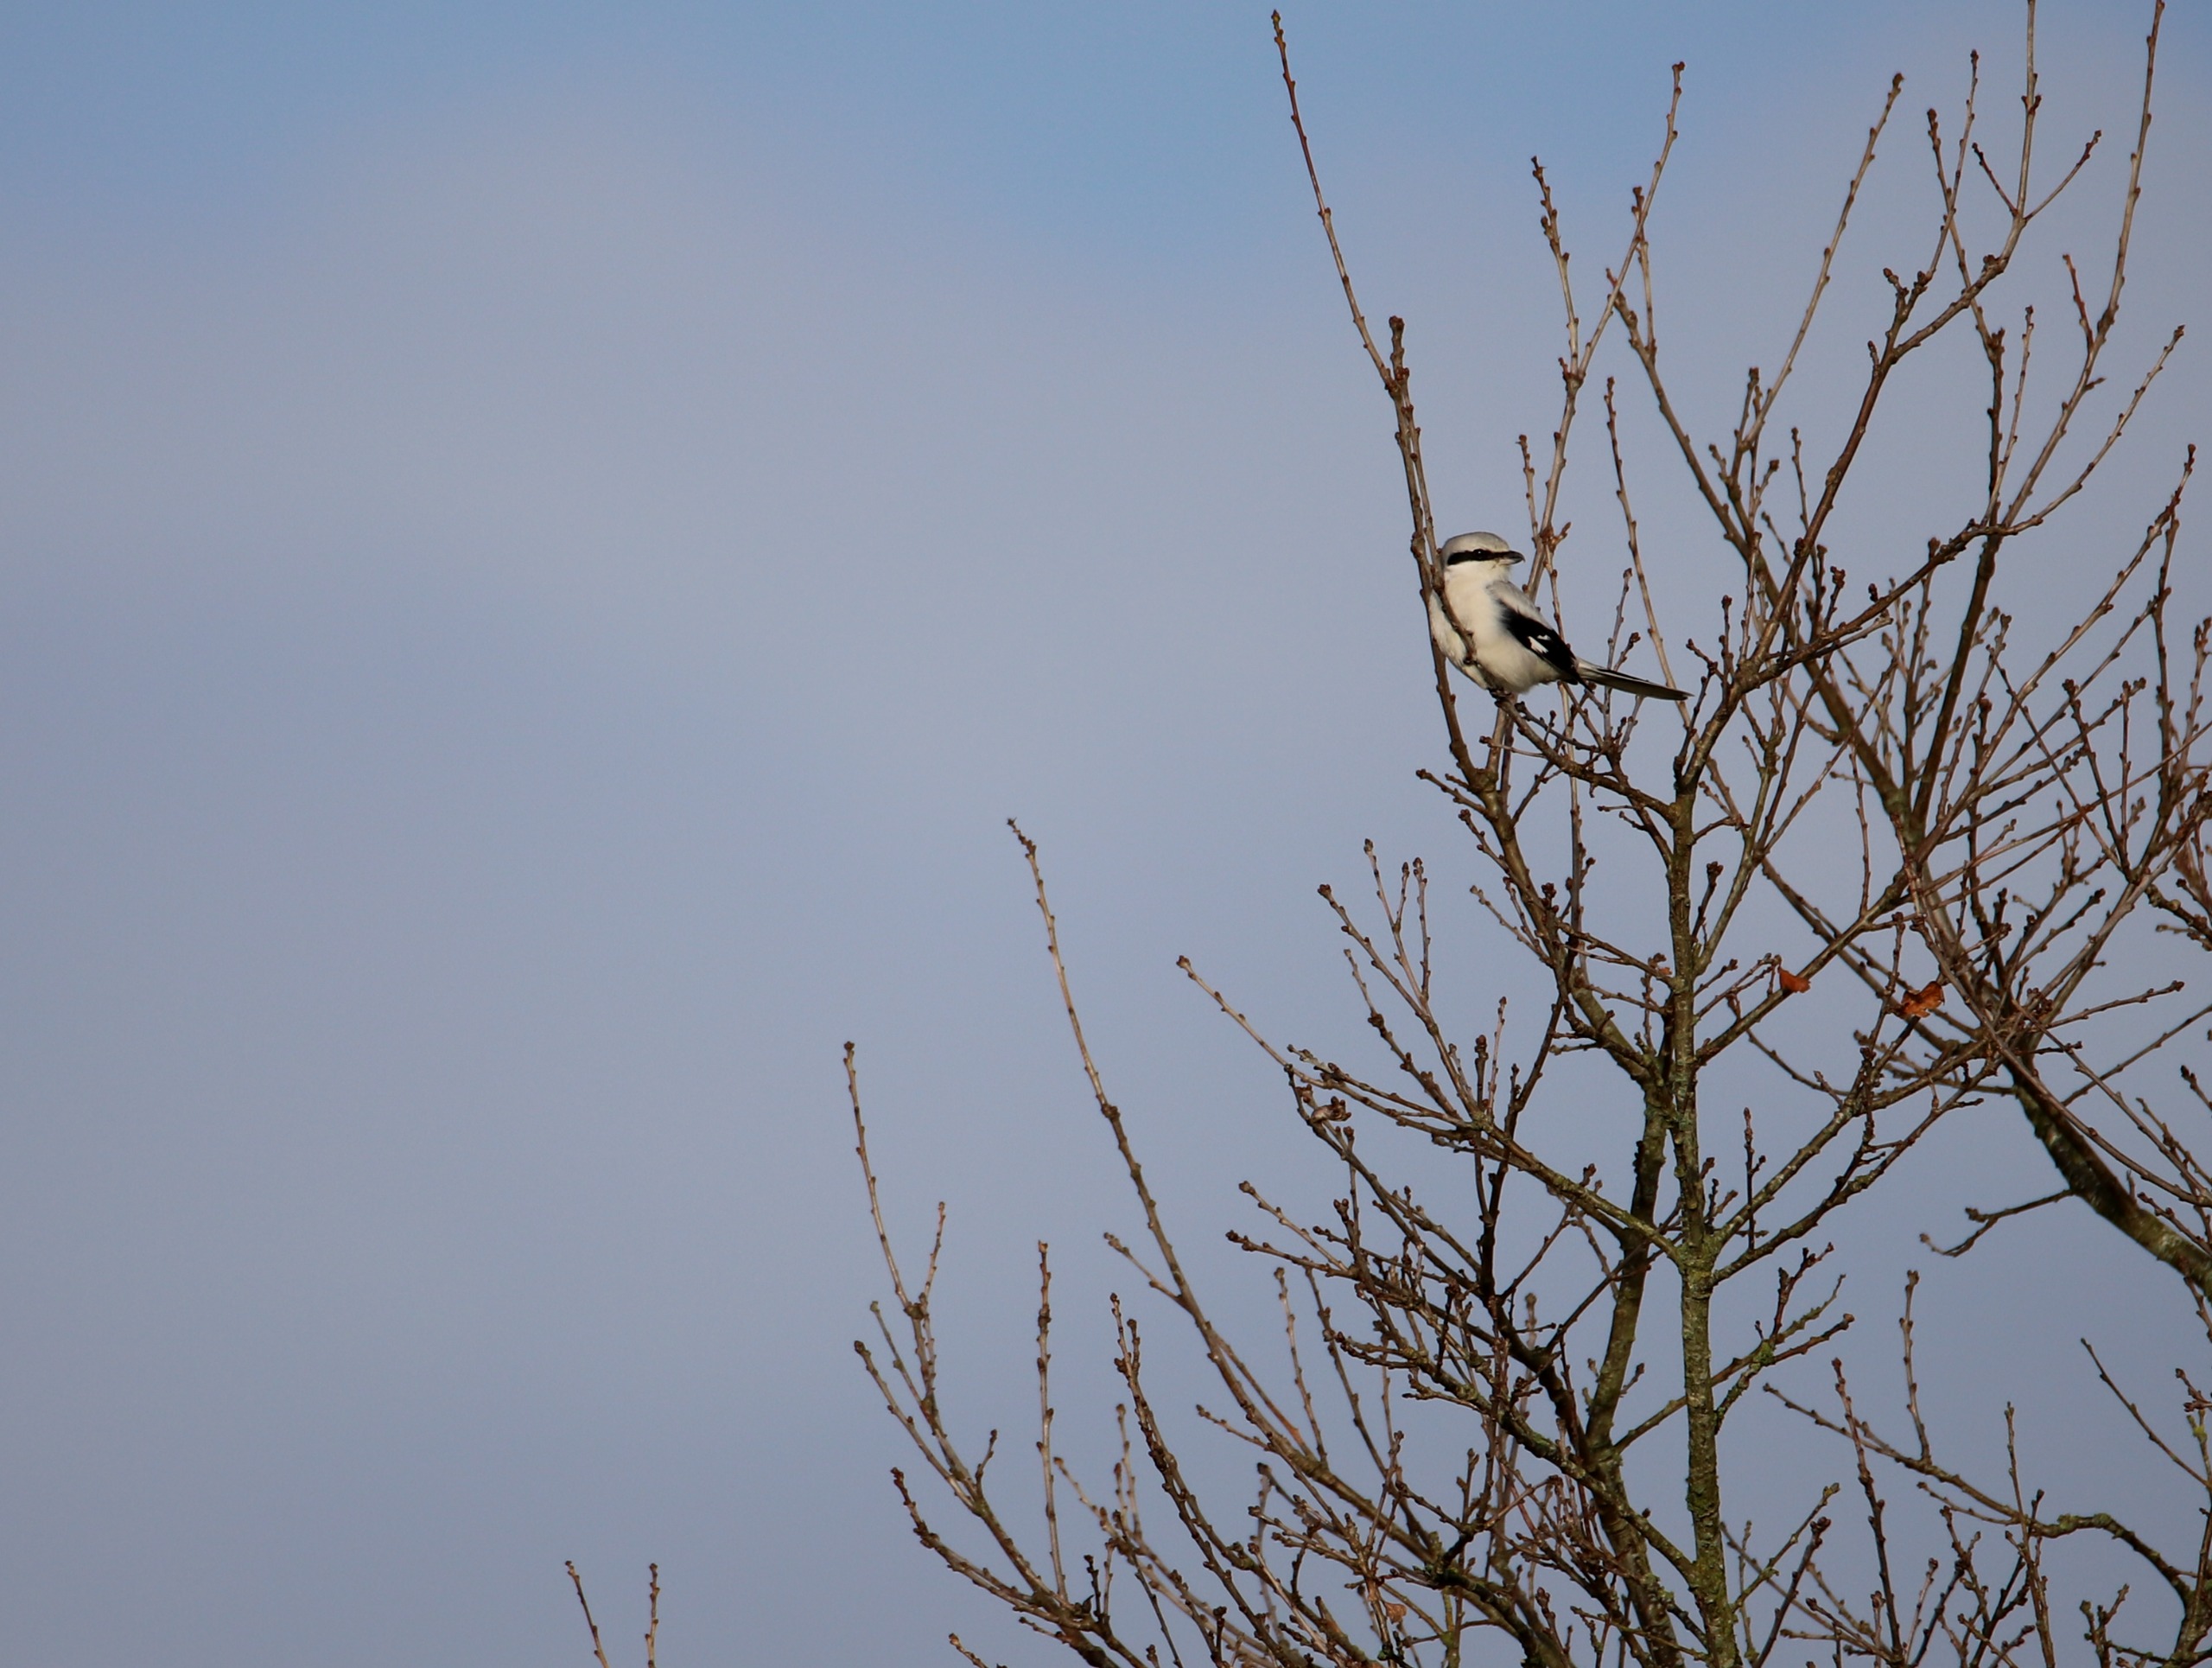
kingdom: Animalia
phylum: Chordata
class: Aves
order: Passeriformes
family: Laniidae
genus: Lanius
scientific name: Lanius excubitor
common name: Stor tornskade
